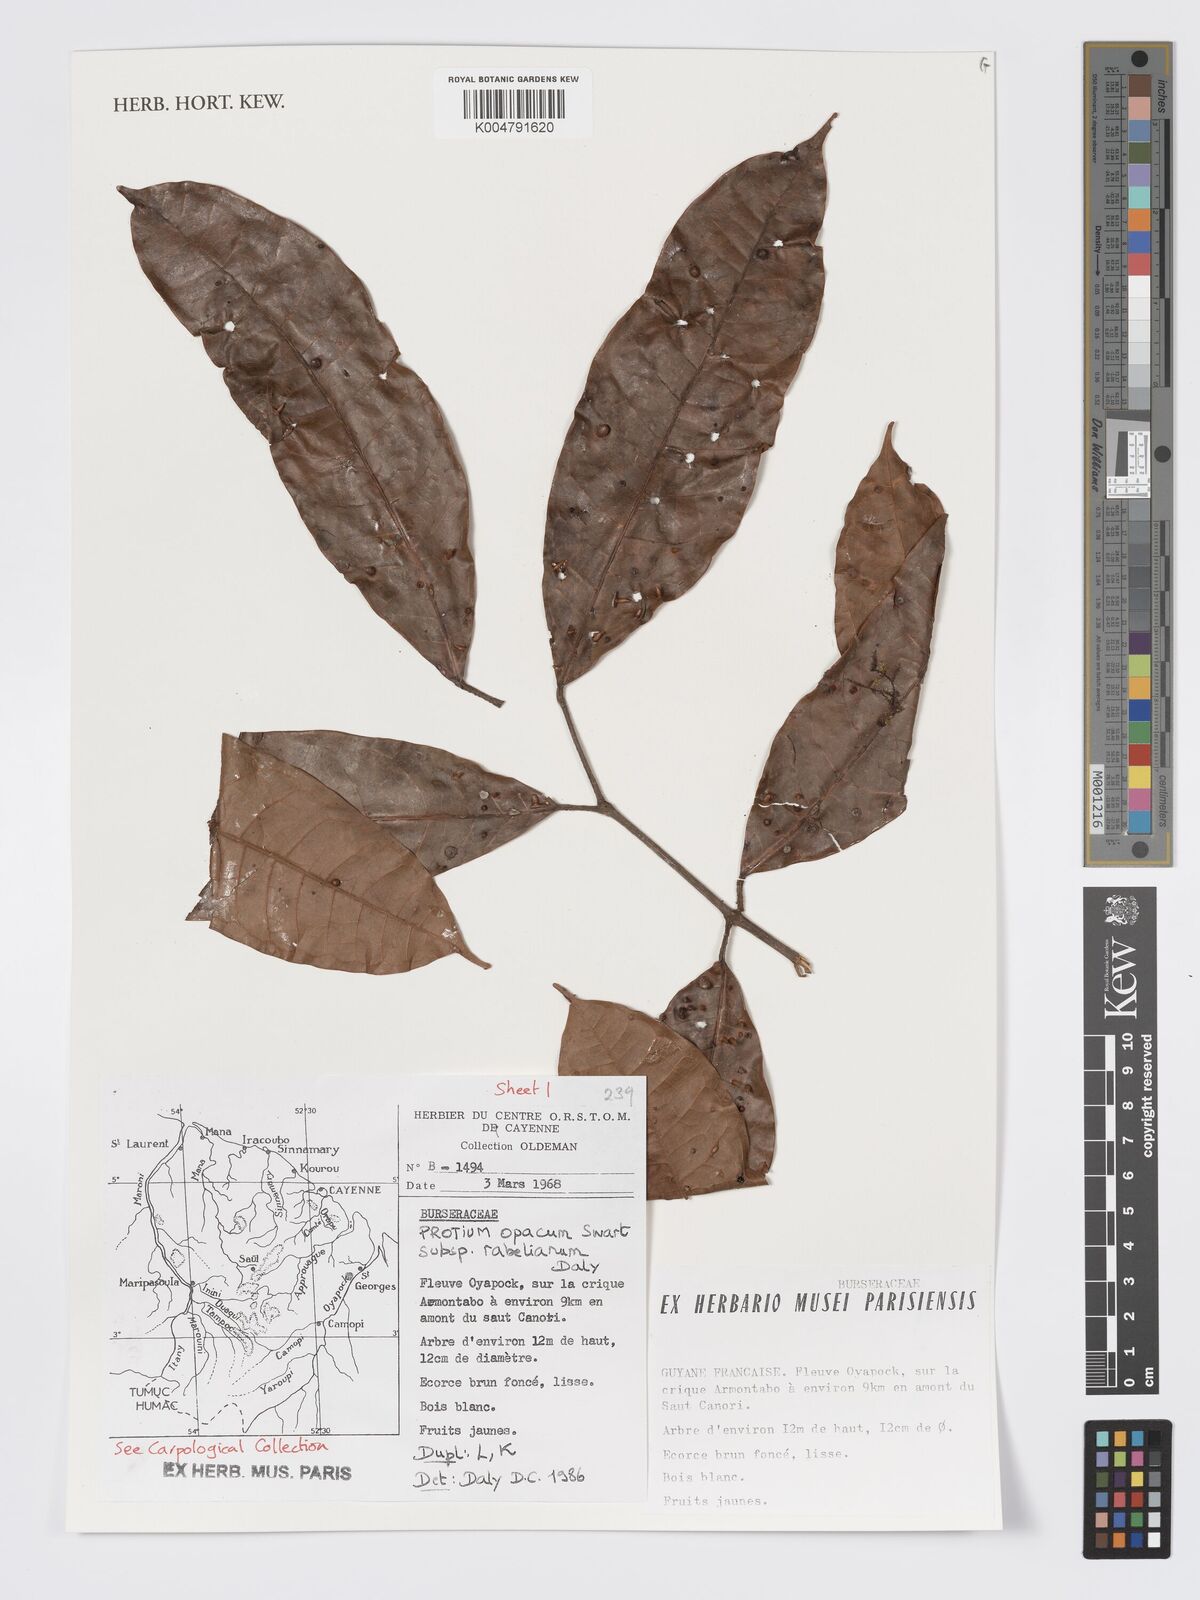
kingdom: Plantae
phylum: Tracheophyta
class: Magnoliopsida
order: Sapindales
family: Burseraceae
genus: Protium
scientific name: Protium opacum
